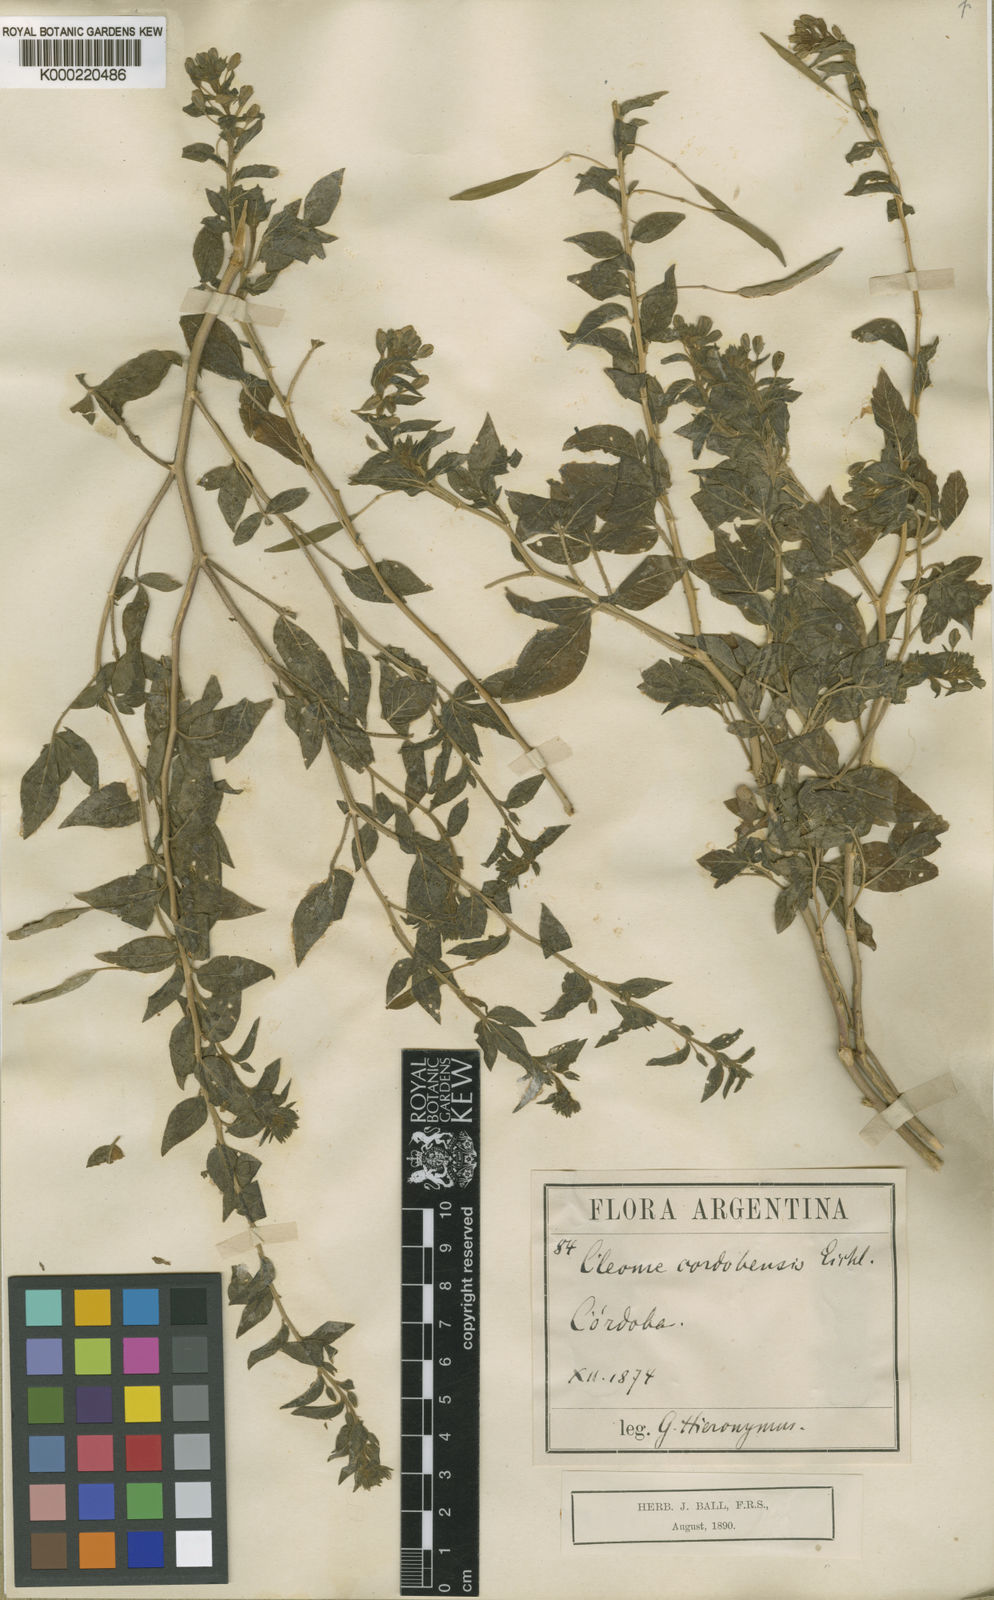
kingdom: Plantae
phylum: Tracheophyta
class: Magnoliopsida
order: Brassicales
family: Cleomaceae
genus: Tarenaya
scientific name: Tarenaya cordobensis
